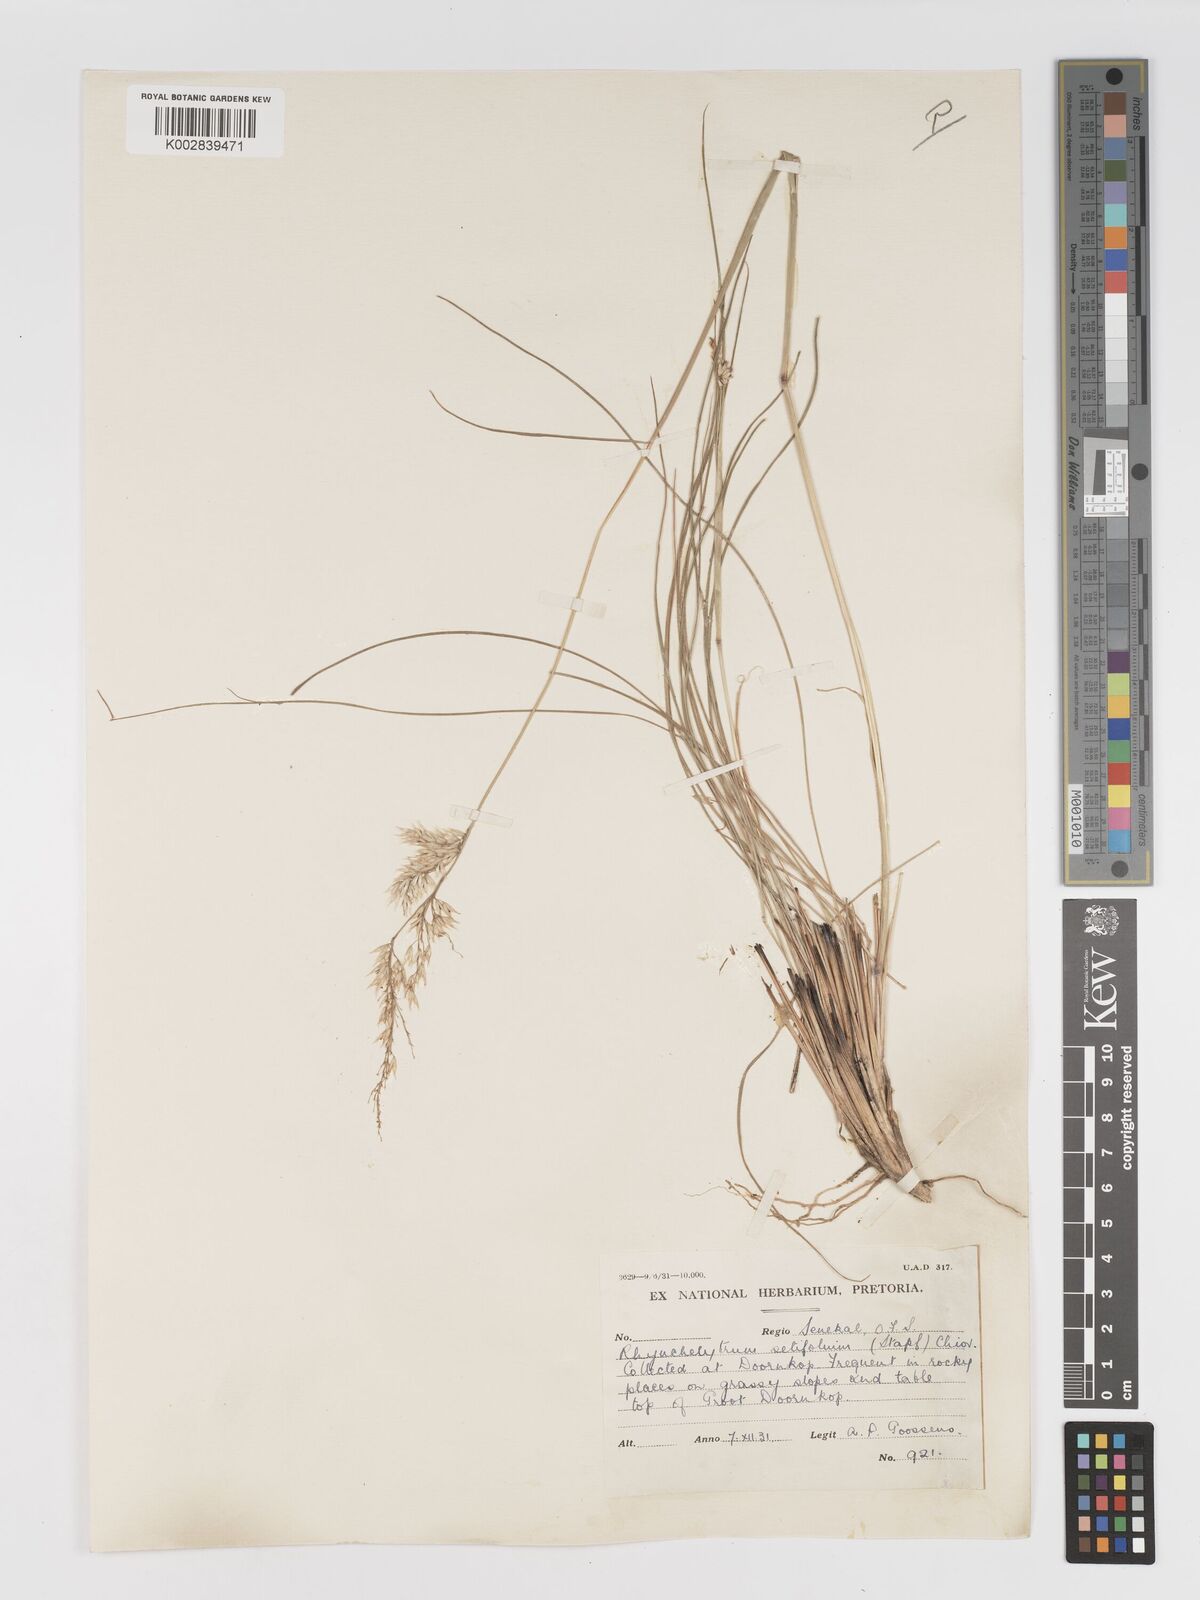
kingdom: Plantae
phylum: Tracheophyta
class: Liliopsida
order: Poales
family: Poaceae
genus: Melinis
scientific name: Melinis nerviglumis
